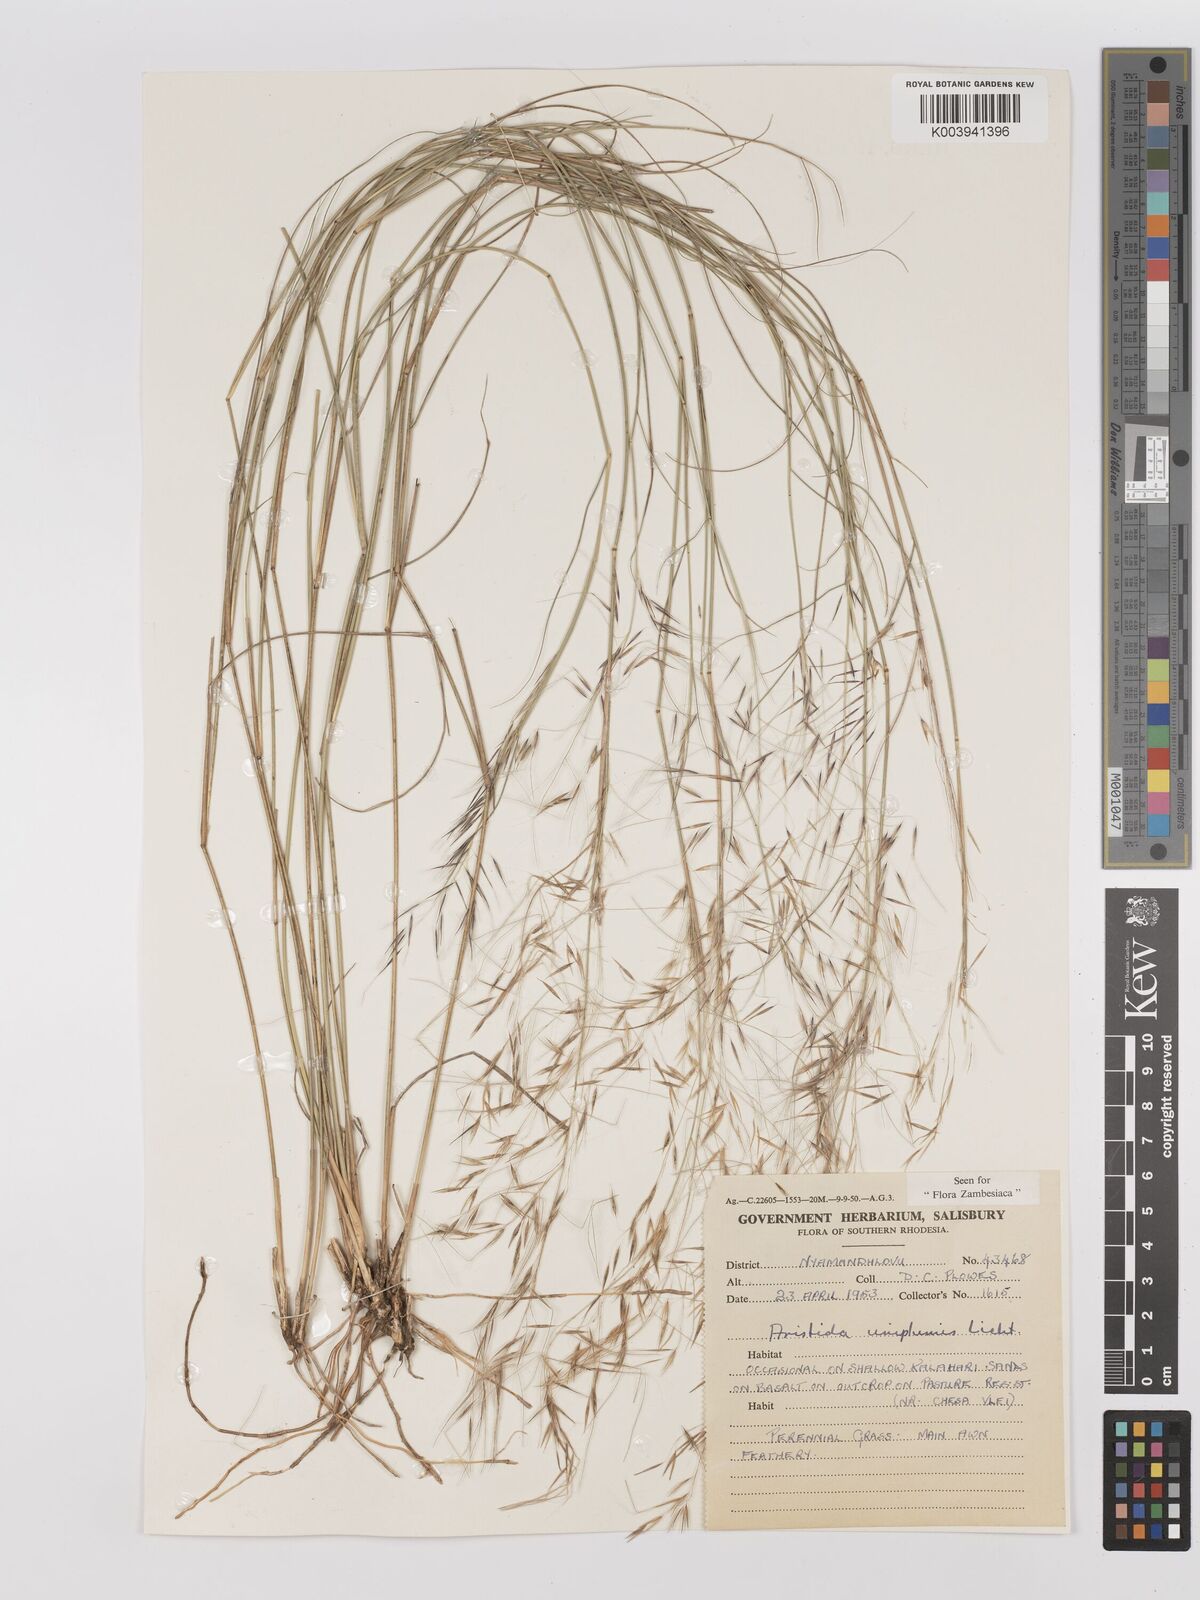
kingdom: Plantae
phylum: Tracheophyta
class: Liliopsida
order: Poales
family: Poaceae
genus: Stipagrostis
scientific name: Stipagrostis uniplumis
